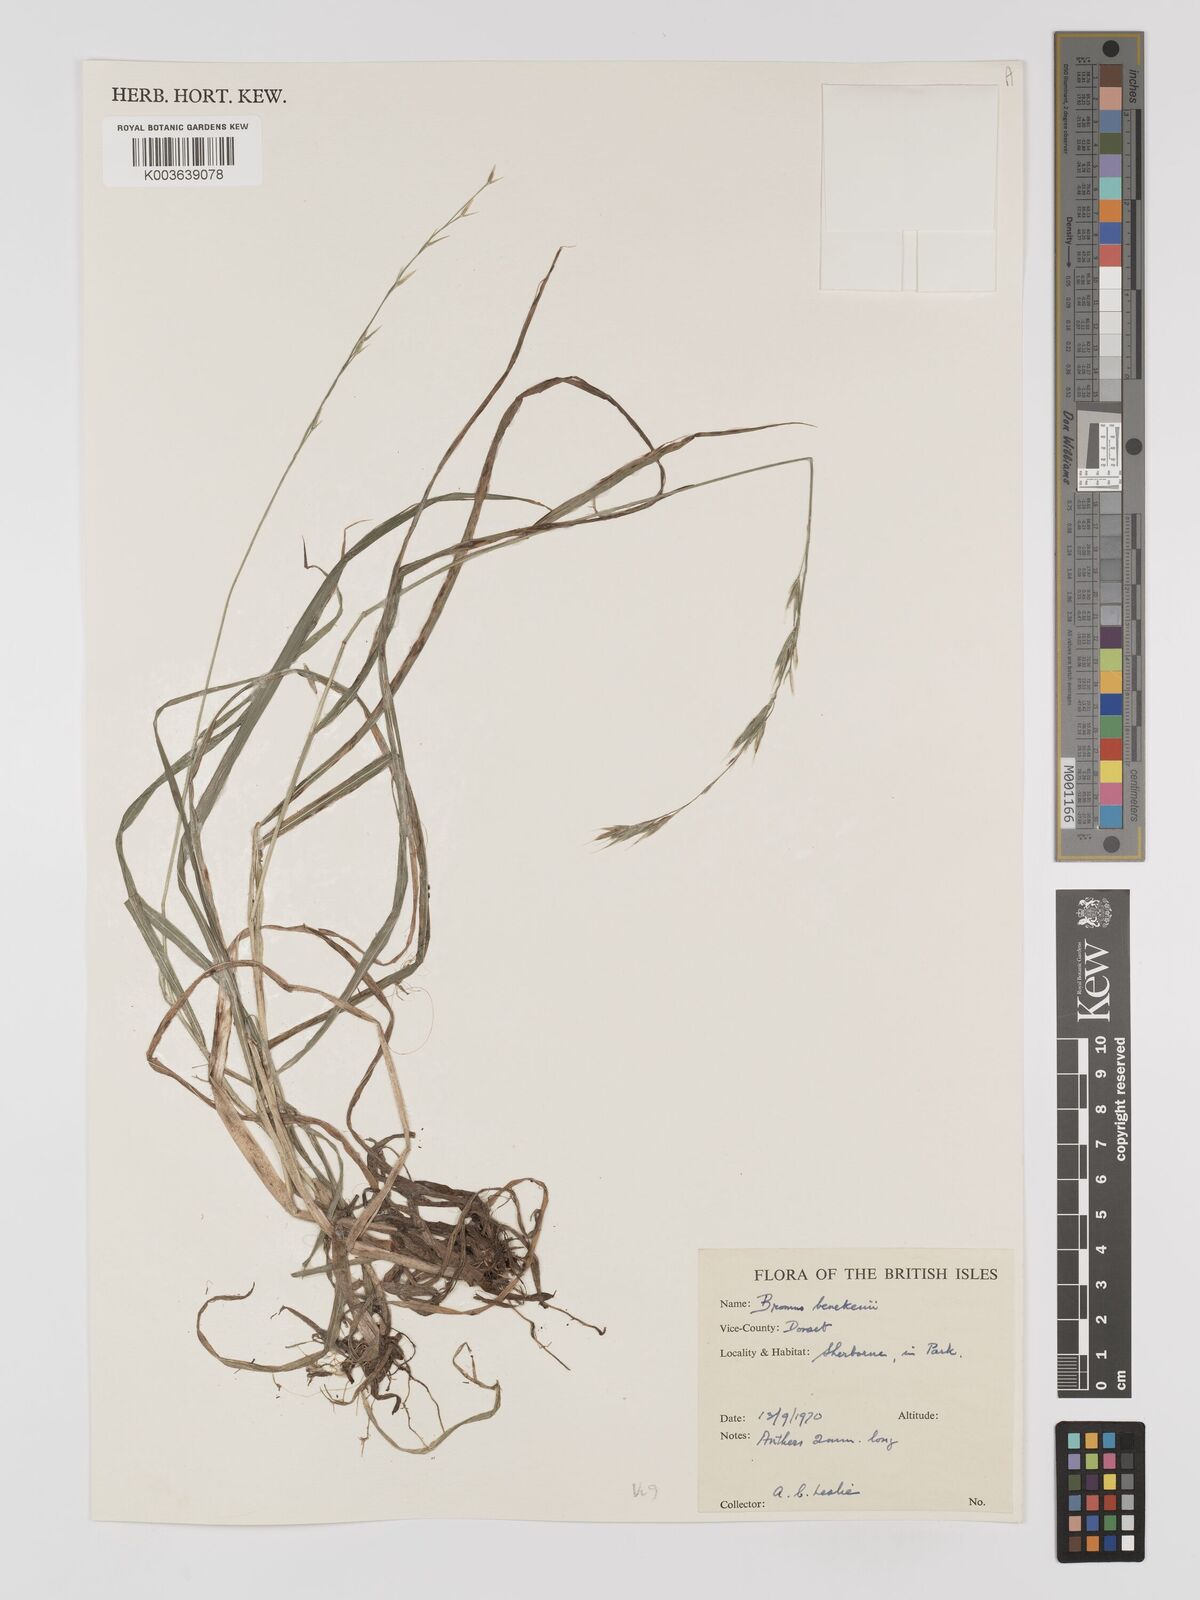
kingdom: Plantae
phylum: Tracheophyta
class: Liliopsida
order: Poales
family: Poaceae
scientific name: Poaceae
